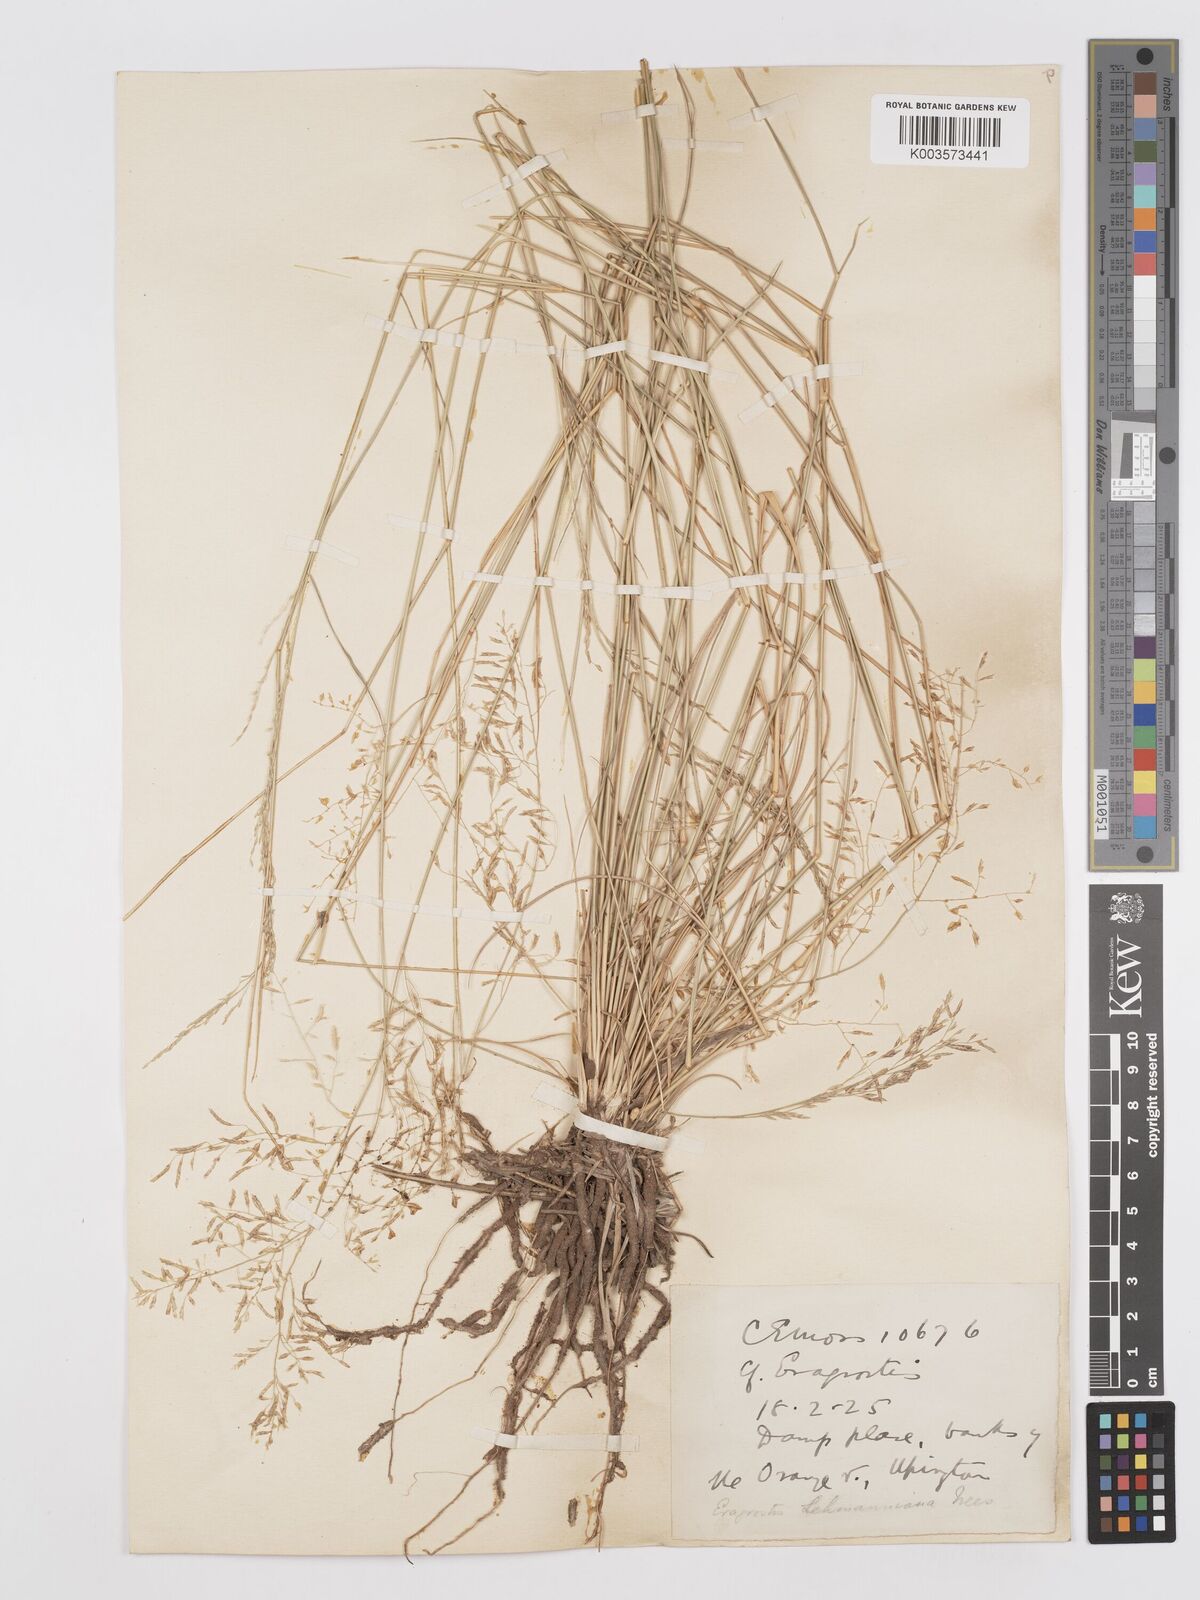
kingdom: Plantae
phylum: Tracheophyta
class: Liliopsida
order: Poales
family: Poaceae
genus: Eragrostis
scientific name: Eragrostis lehmanniana
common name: Lehmann lovegrass
